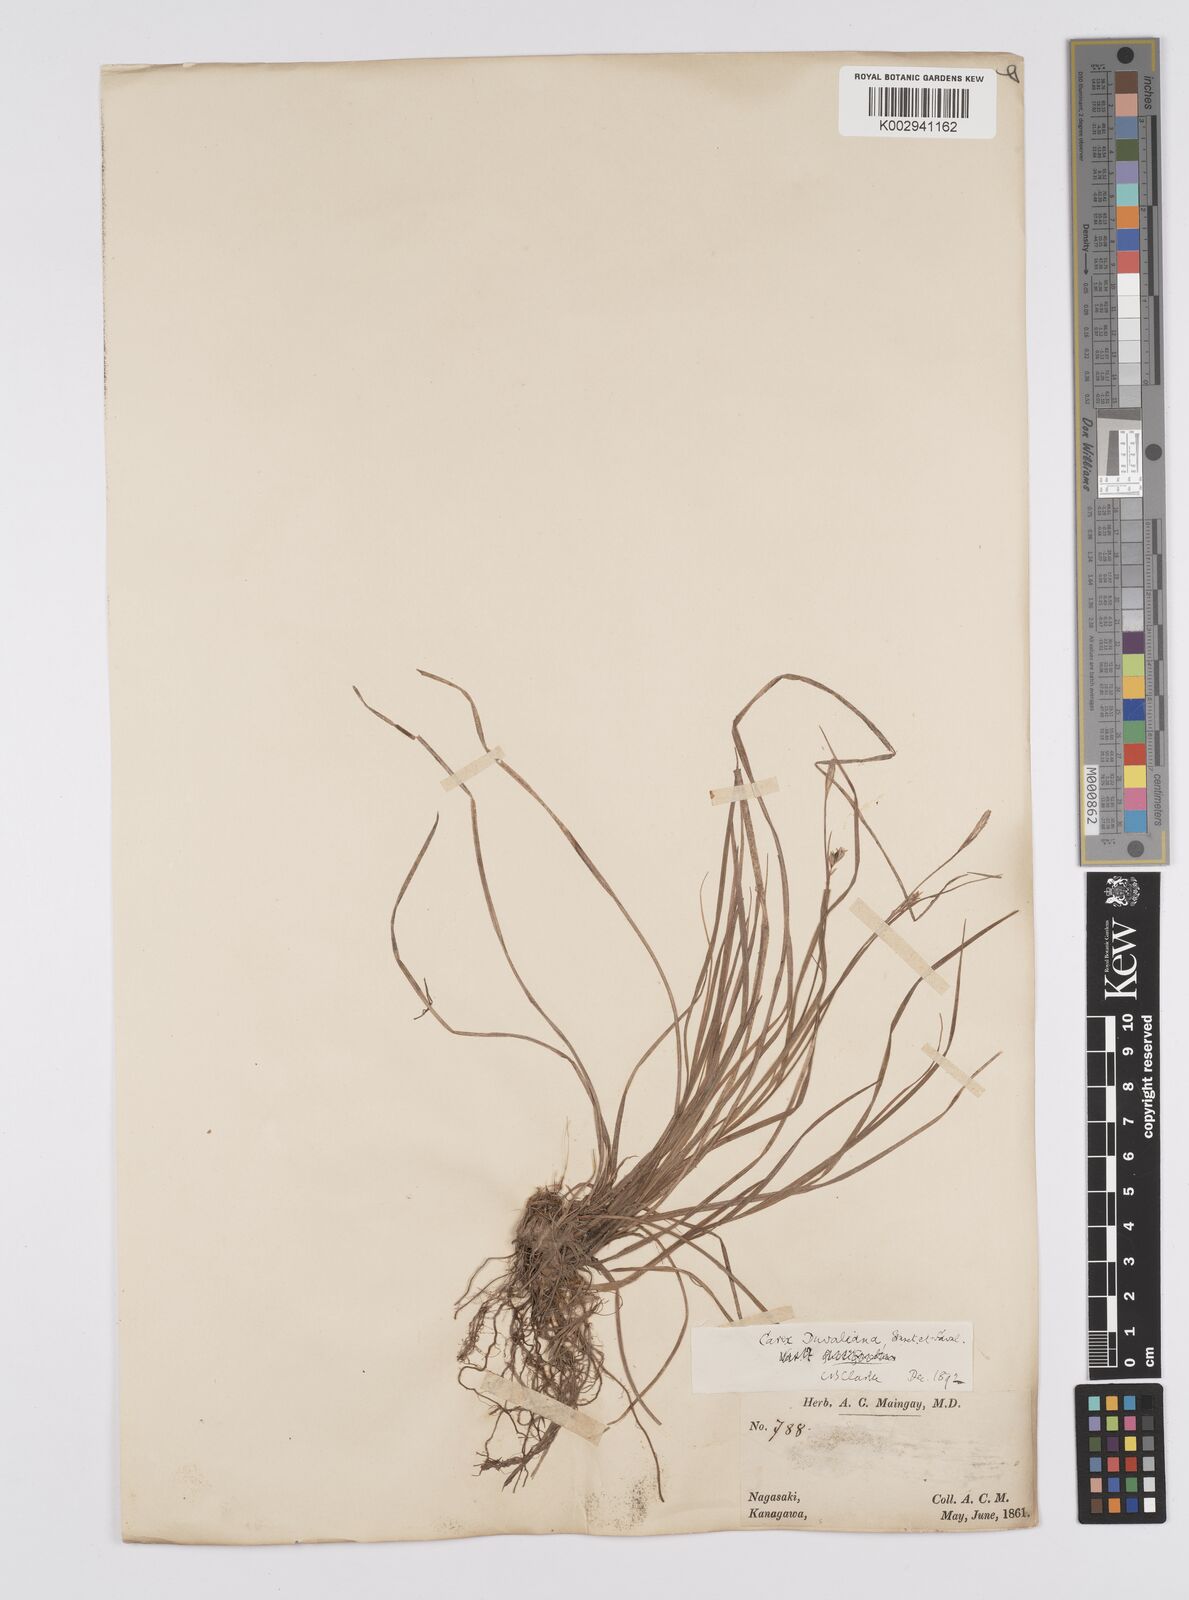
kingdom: Plantae
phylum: Tracheophyta
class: Liliopsida
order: Poales
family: Cyperaceae
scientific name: Cyperaceae
